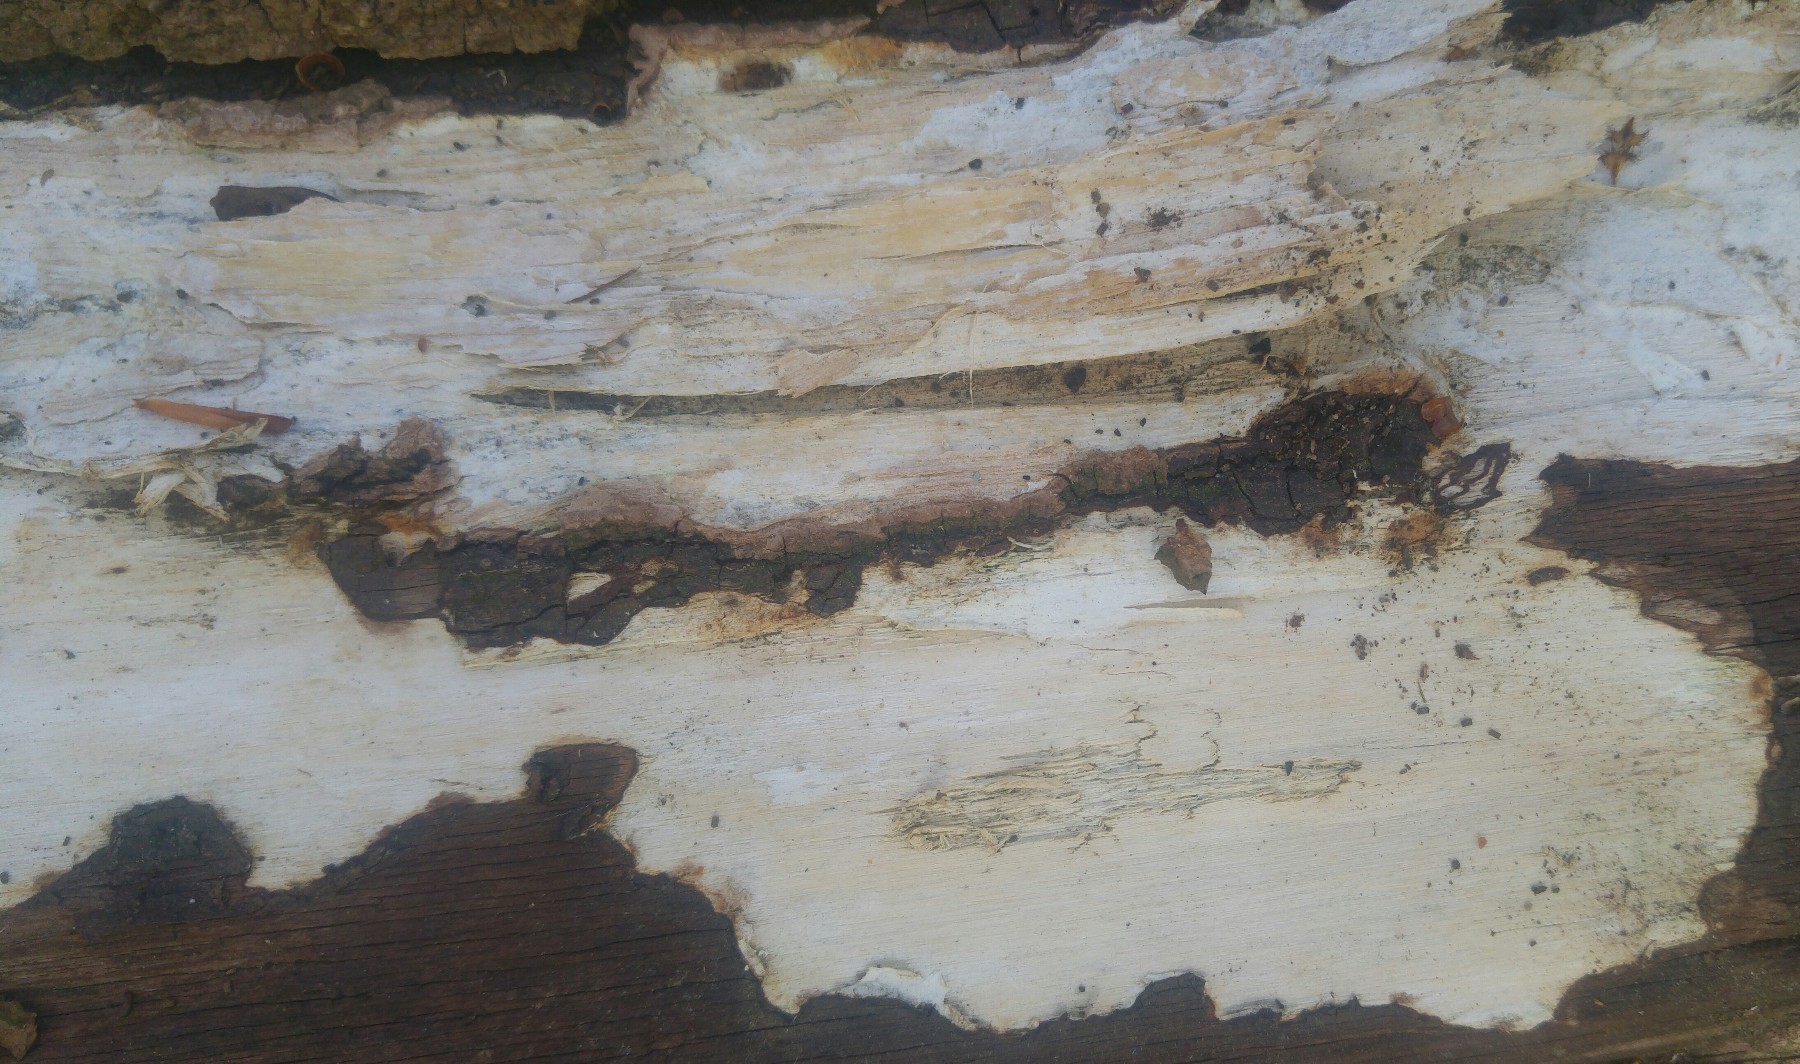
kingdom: Fungi
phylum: Basidiomycota
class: Agaricomycetes
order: Corticiales
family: Corticiaceae
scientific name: Corticiaceae
